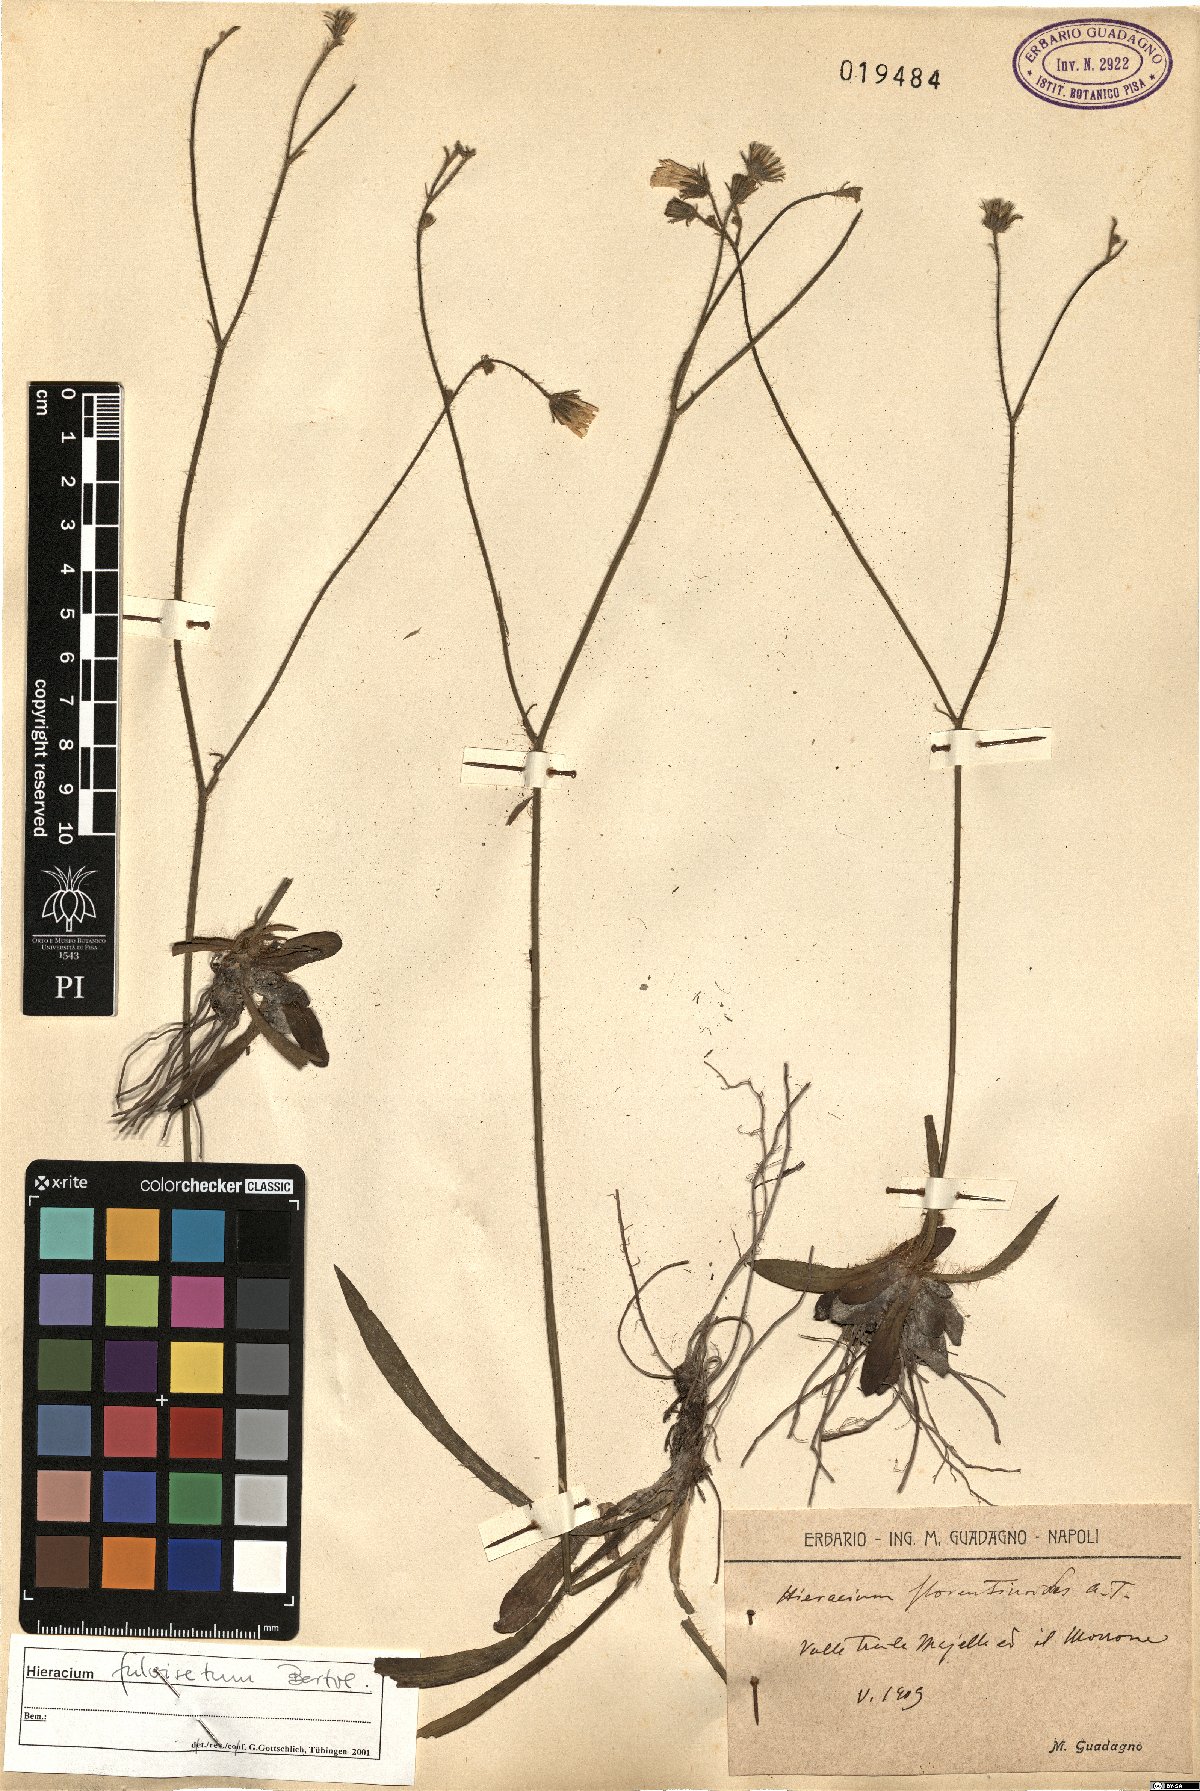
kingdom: Plantae
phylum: Tracheophyta
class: Magnoliopsida
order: Asterales
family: Asteraceae
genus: Pilosella
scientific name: Pilosella anchusoides
